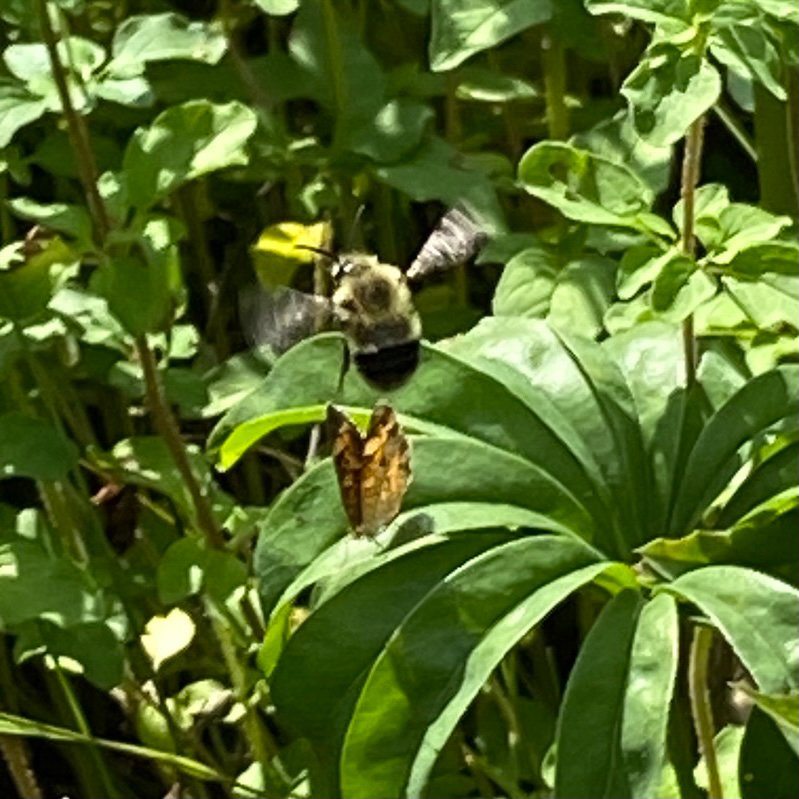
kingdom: Animalia
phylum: Arthropoda
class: Insecta
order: Lepidoptera
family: Nymphalidae
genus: Phyciodes
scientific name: Phyciodes
